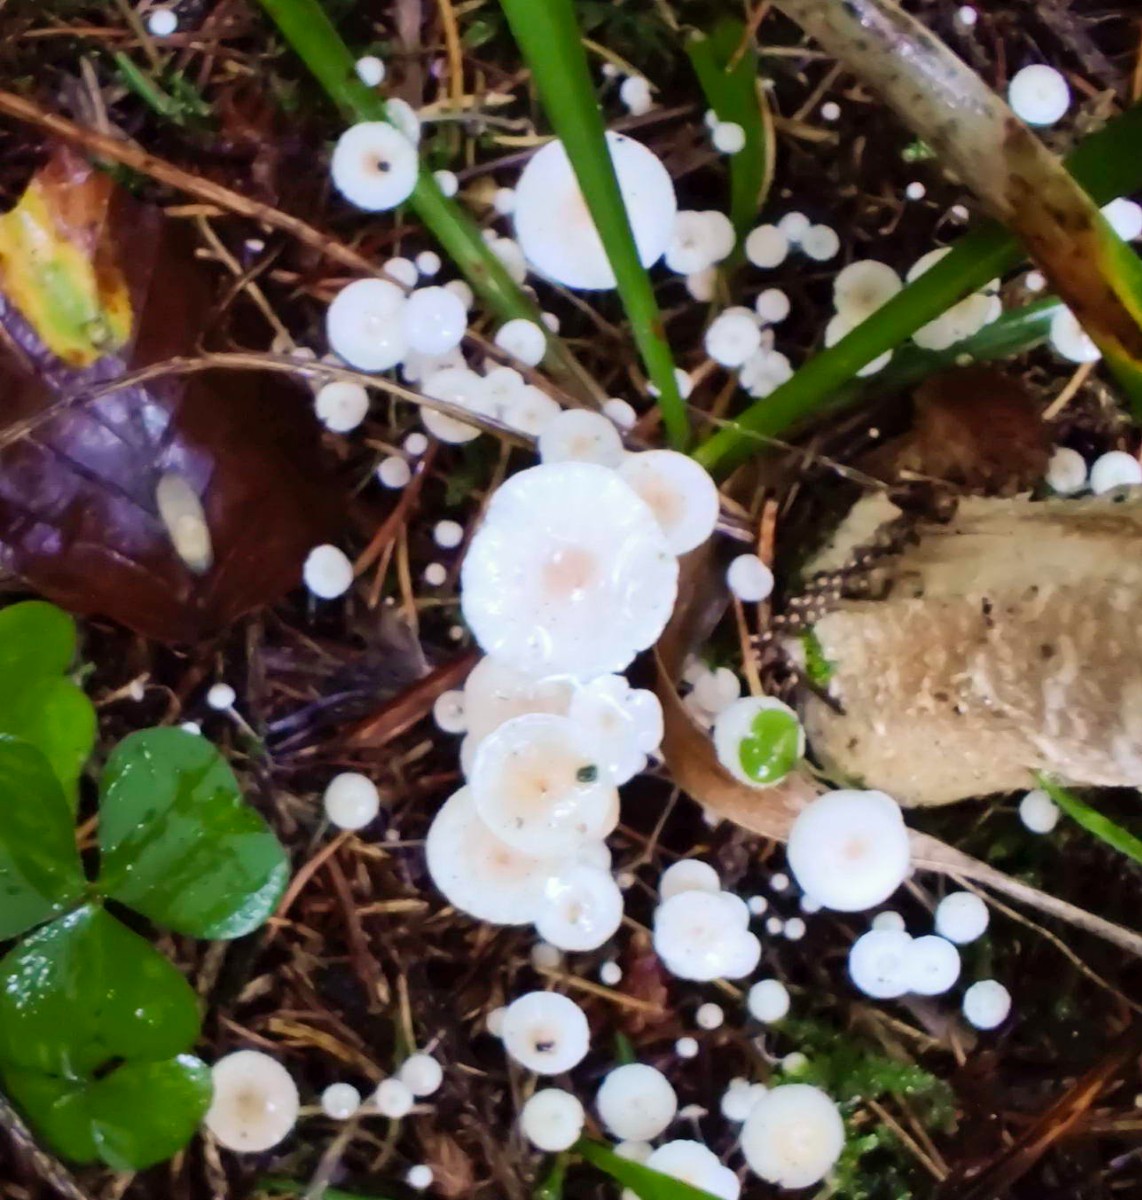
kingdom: Fungi
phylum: Basidiomycota
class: Agaricomycetes
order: Agaricales
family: Tricholomataceae
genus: Collybia
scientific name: Collybia cookei
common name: gulknoldet lighat
